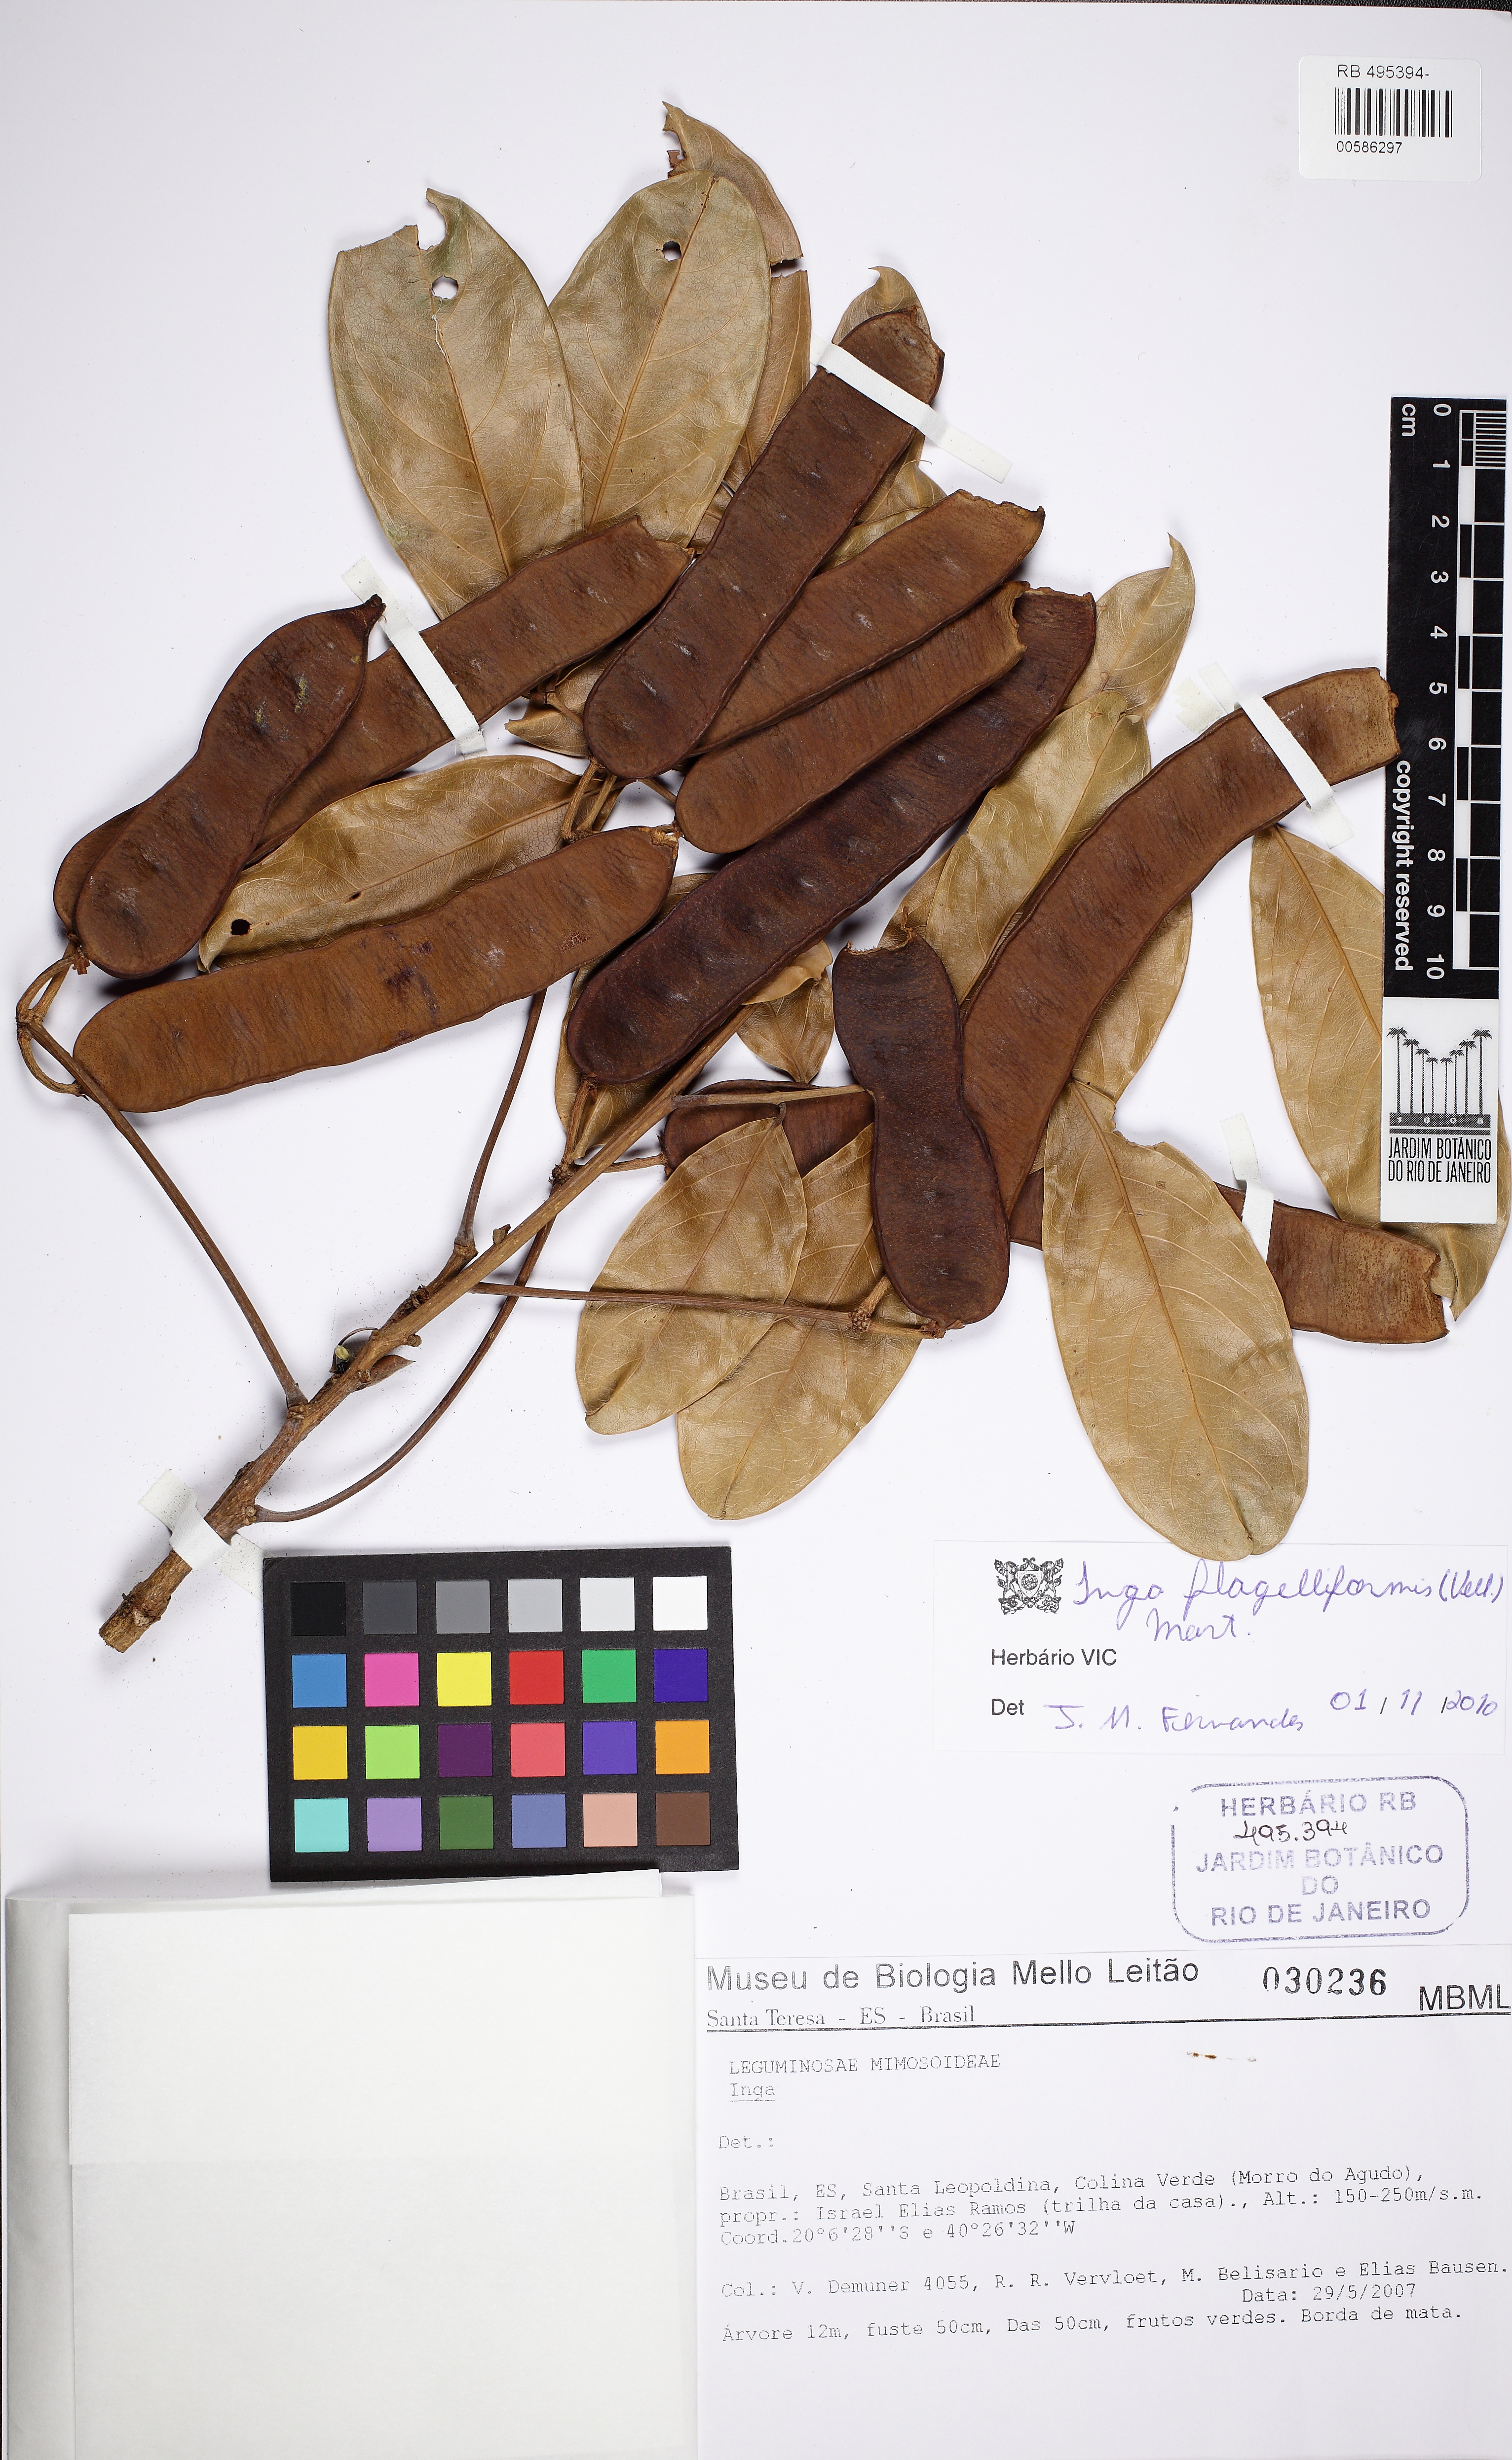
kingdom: Plantae
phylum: Tracheophyta
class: Magnoliopsida
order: Fabales
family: Fabaceae
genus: Inga
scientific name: Inga flagelliformis
